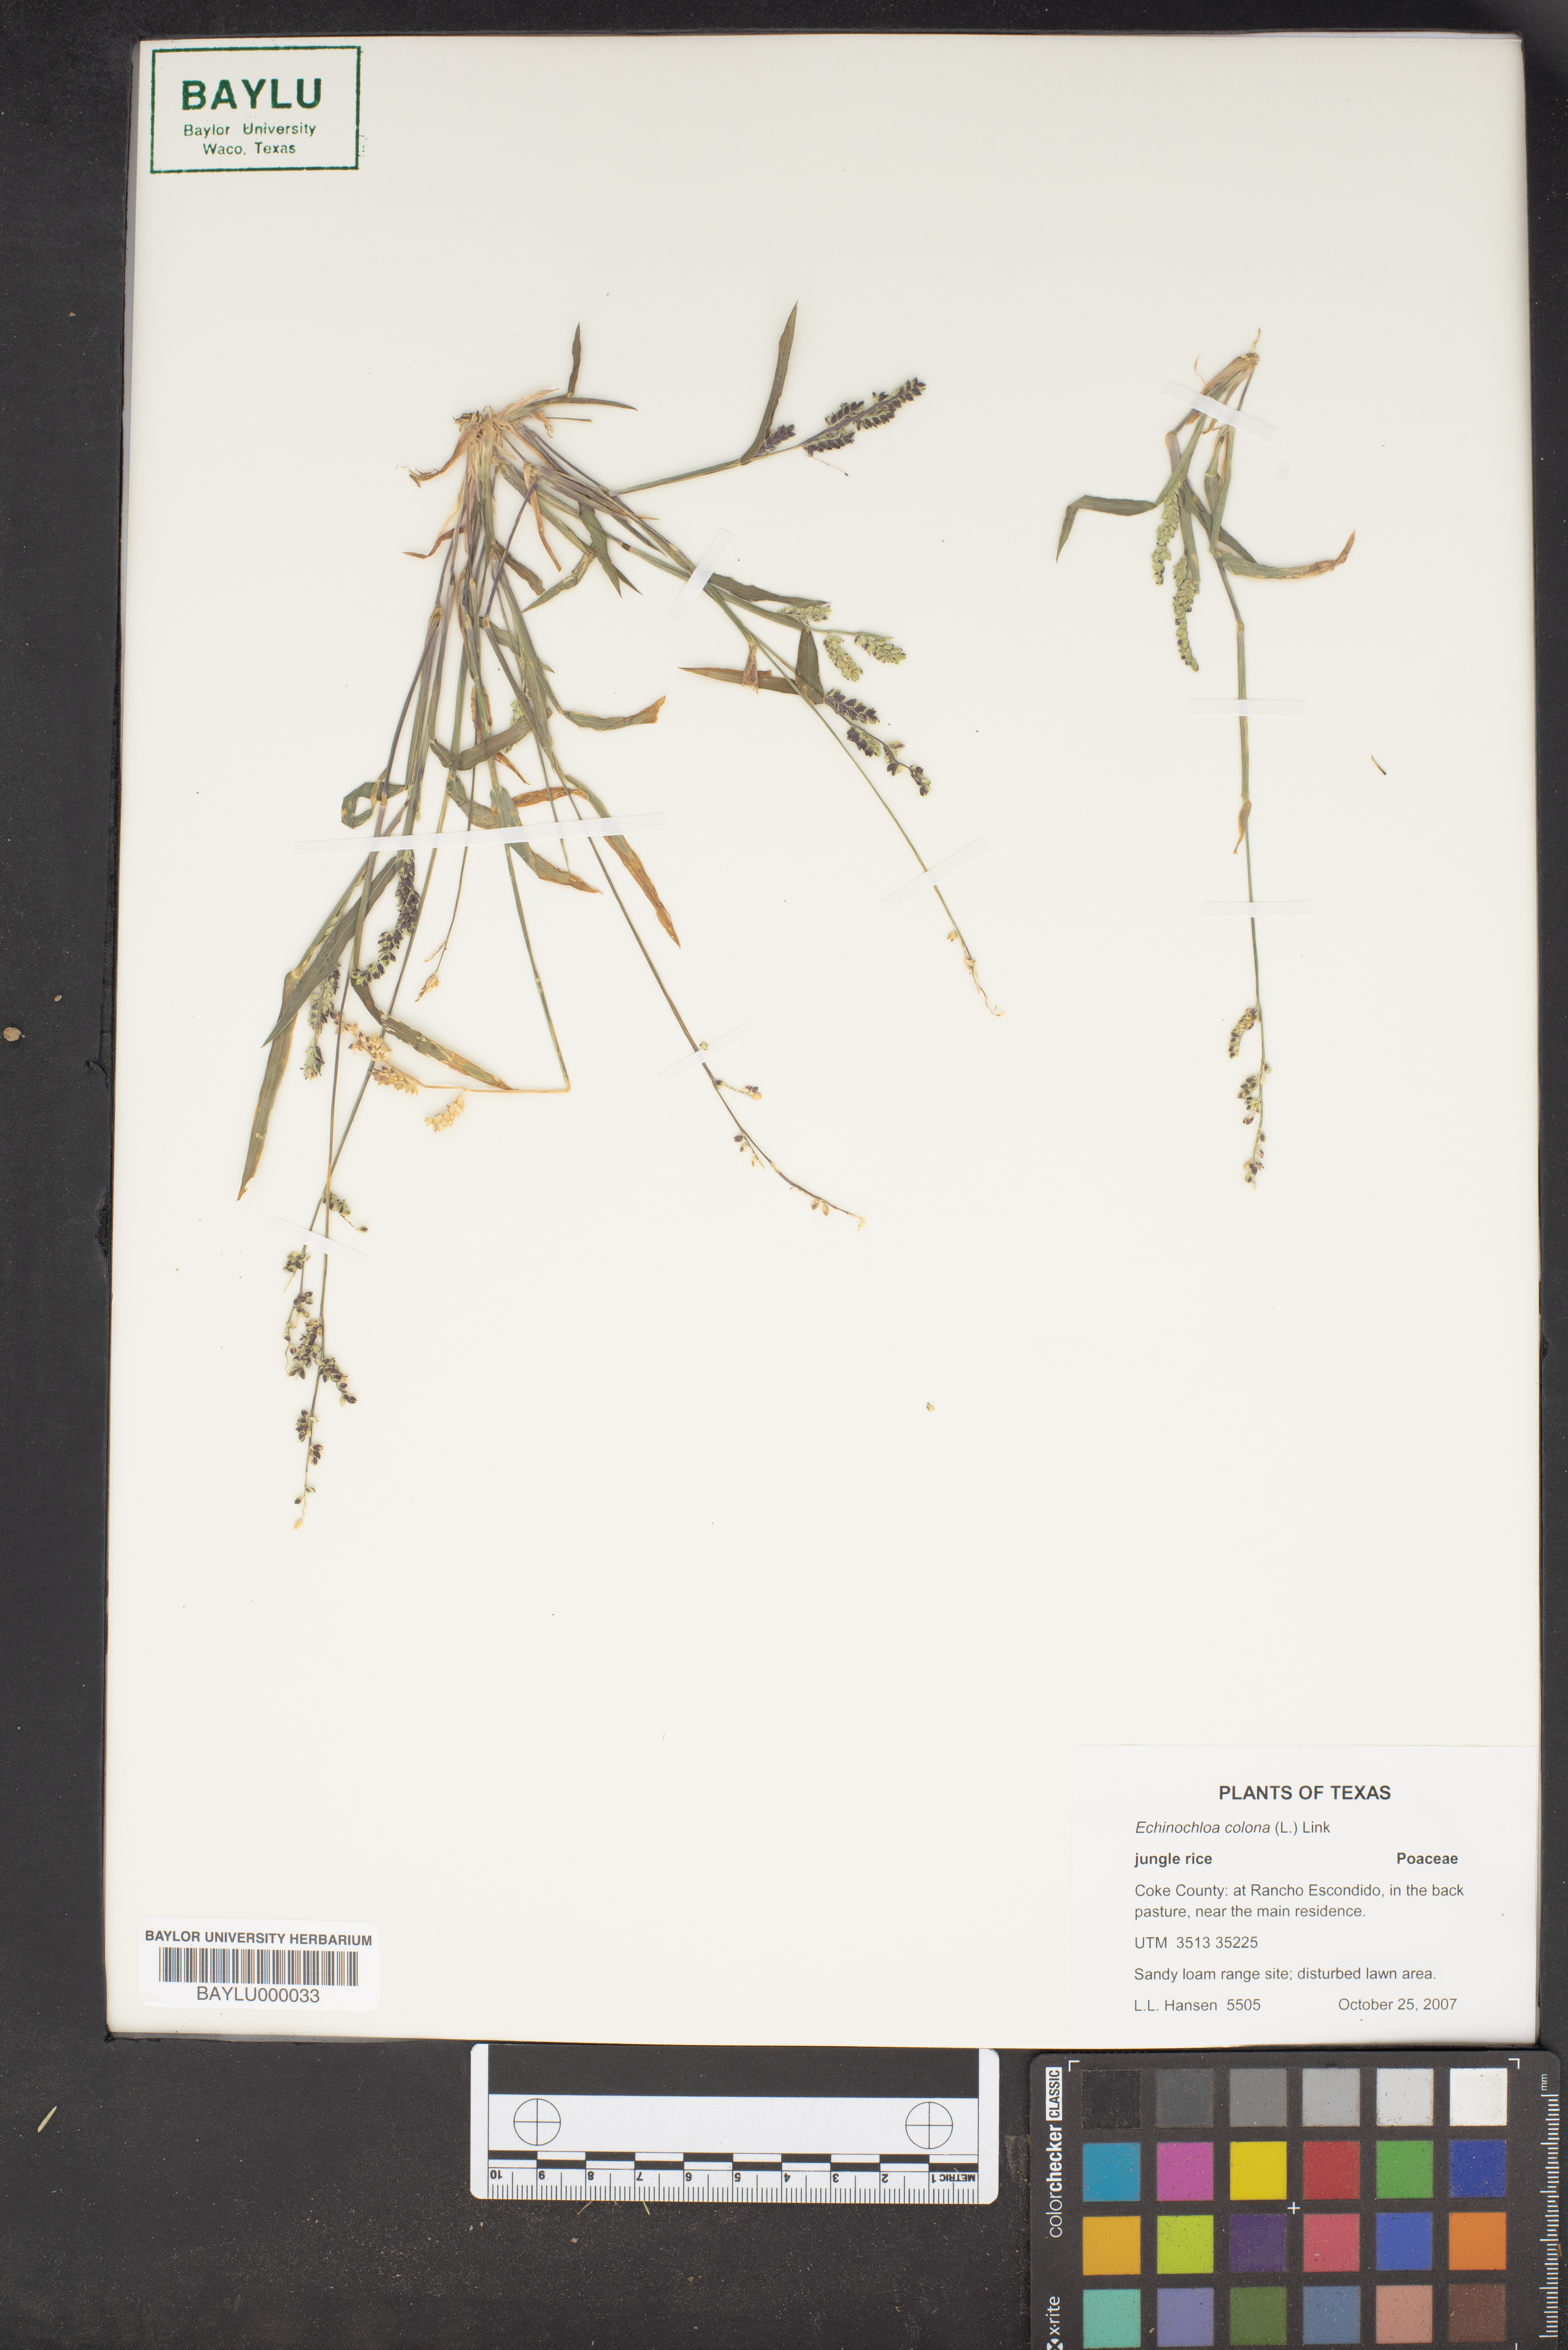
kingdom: Plantae
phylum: Tracheophyta
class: Liliopsida
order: Poales
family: Poaceae
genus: Echinochloa
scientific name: Echinochloa colonum
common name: Jungle rice
